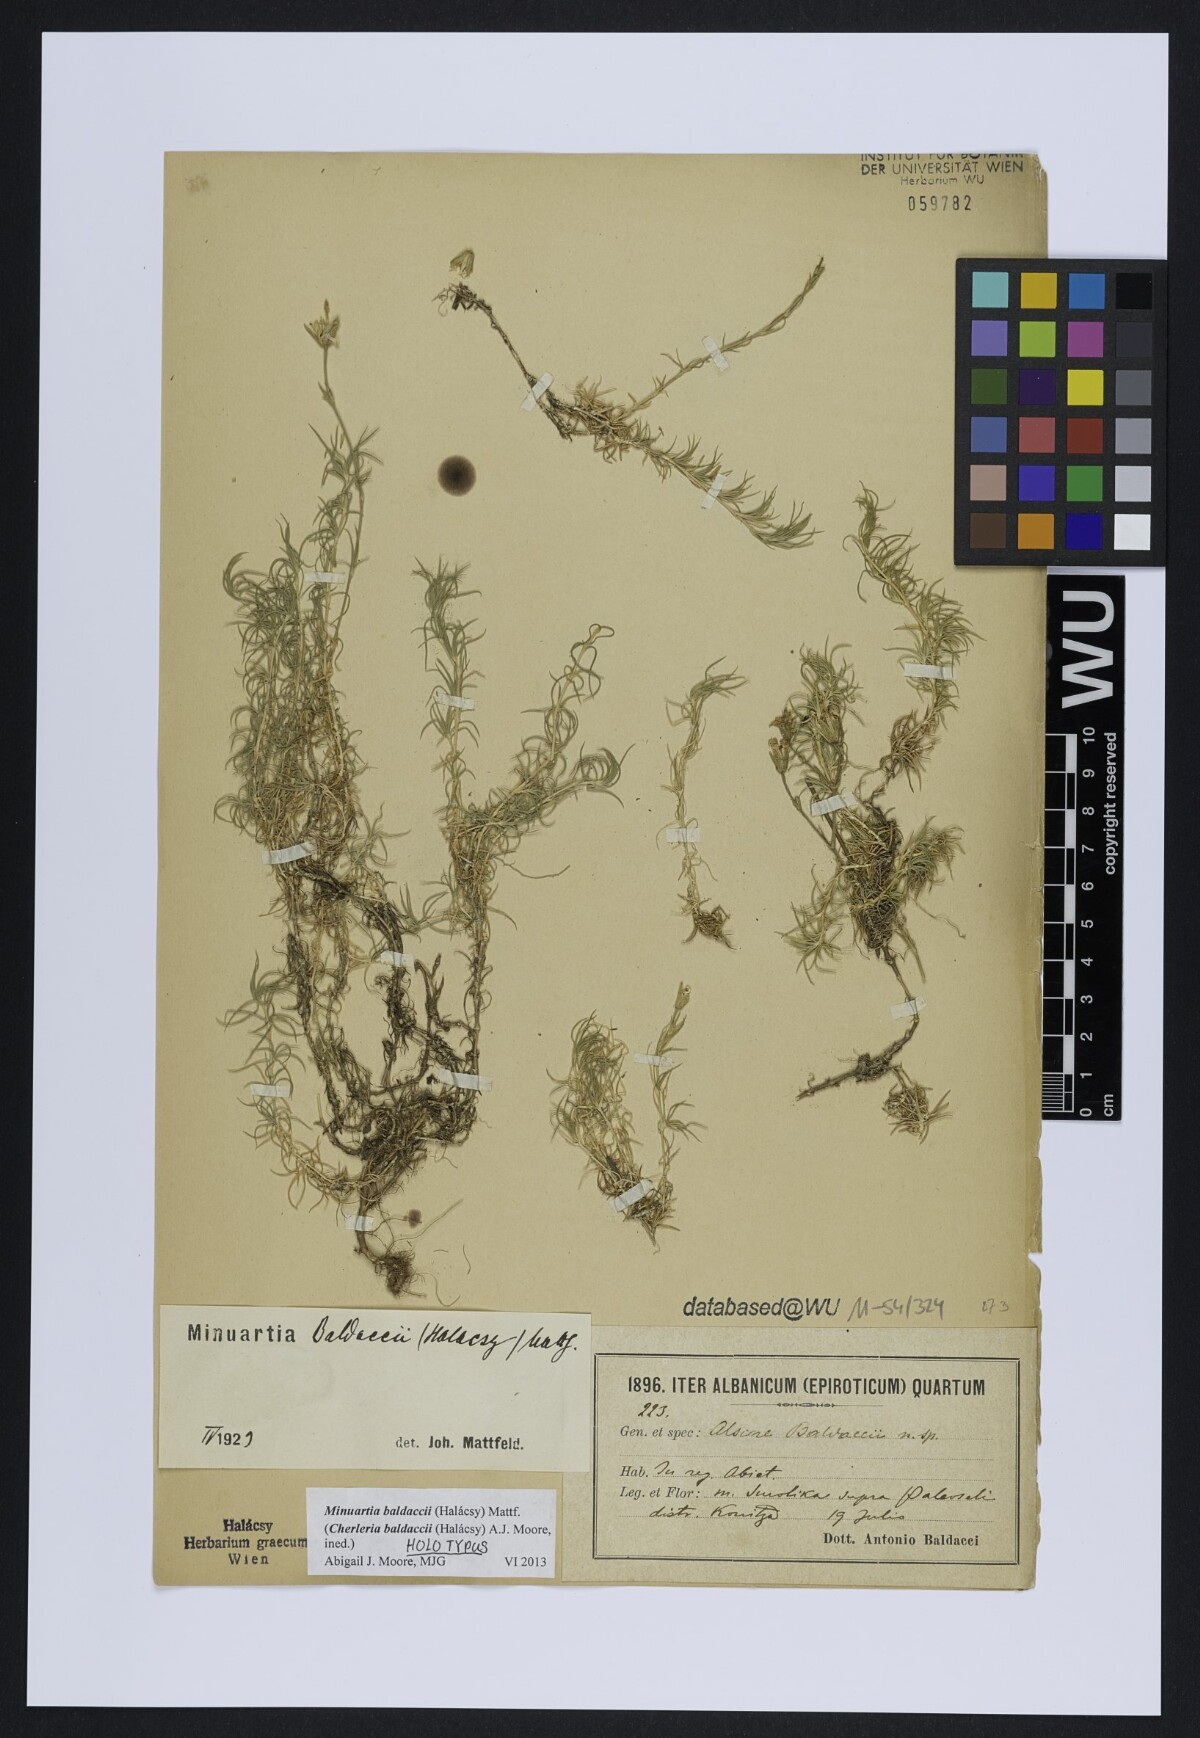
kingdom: Plantae
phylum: Tracheophyta
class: Magnoliopsida
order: Caryophyllales
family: Caryophyllaceae
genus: Cherleria
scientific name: Cherleria baldaccii
